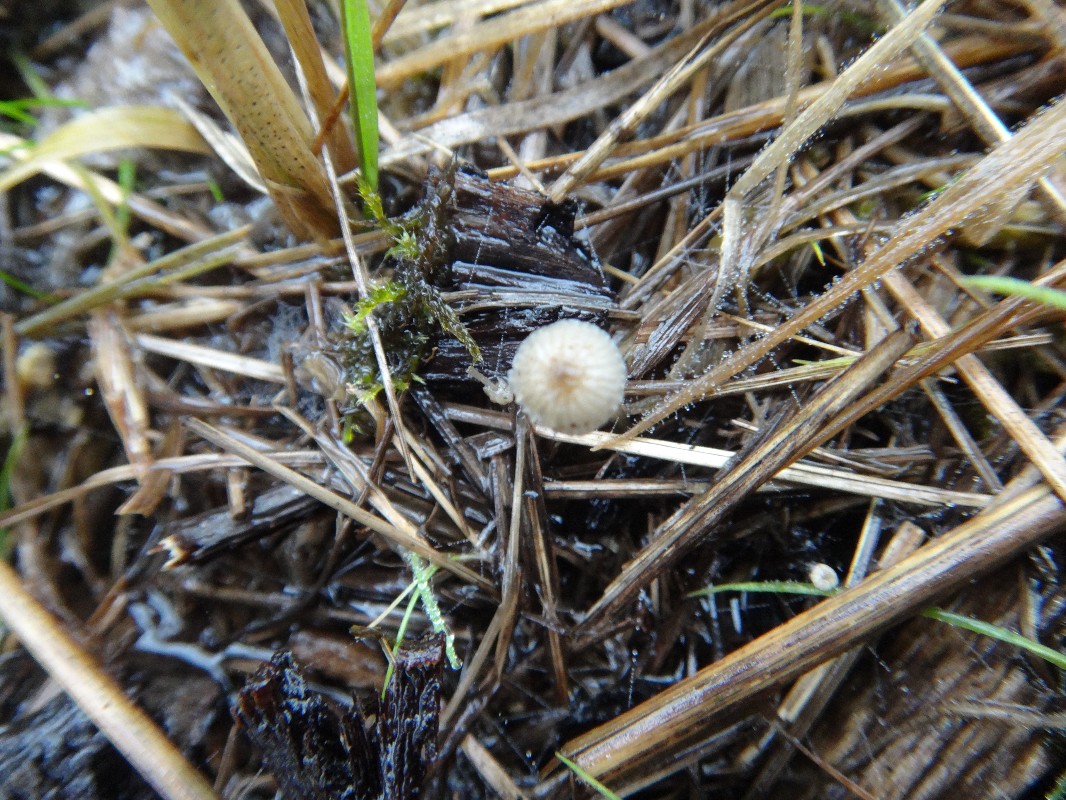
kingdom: Fungi
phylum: Basidiomycota
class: Agaricomycetes
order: Agaricales
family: Porotheleaceae
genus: Phloeomana
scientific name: Phloeomana speirea
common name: kvist-huesvamp
